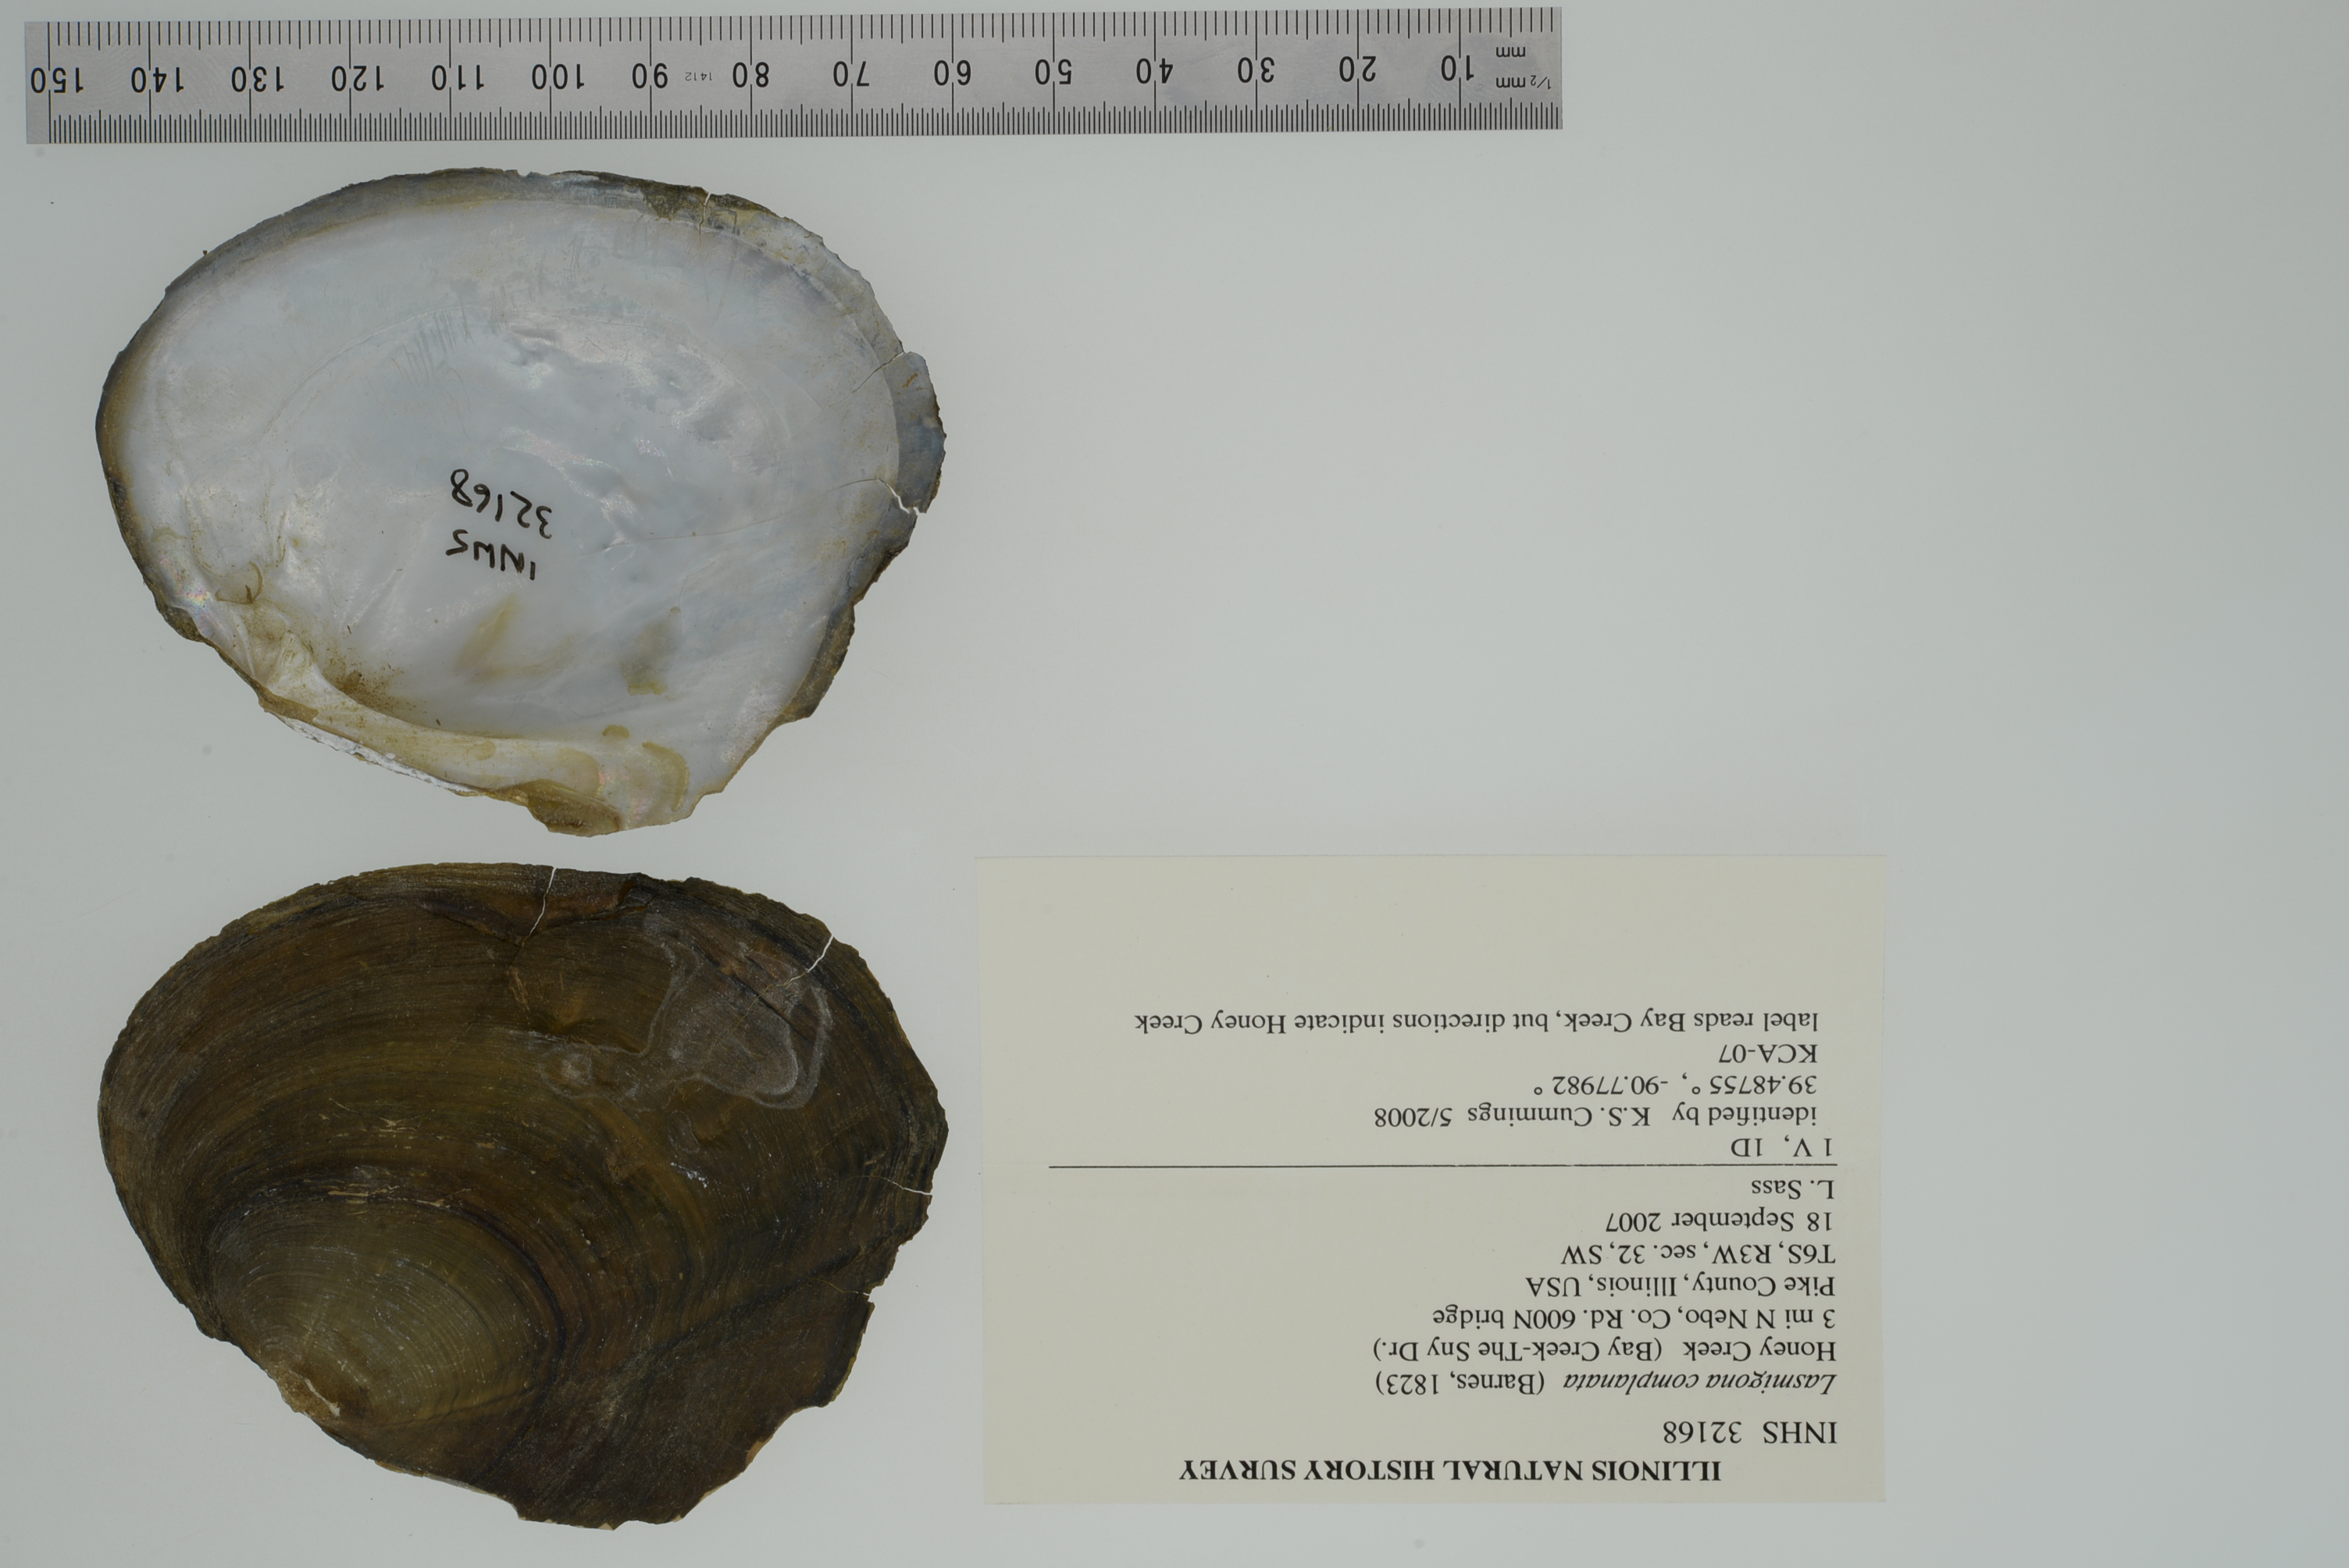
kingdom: Animalia
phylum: Mollusca
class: Bivalvia
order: Unionida
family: Unionidae
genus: Lasmigona
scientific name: Lasmigona complanata
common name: White heelsplitter
